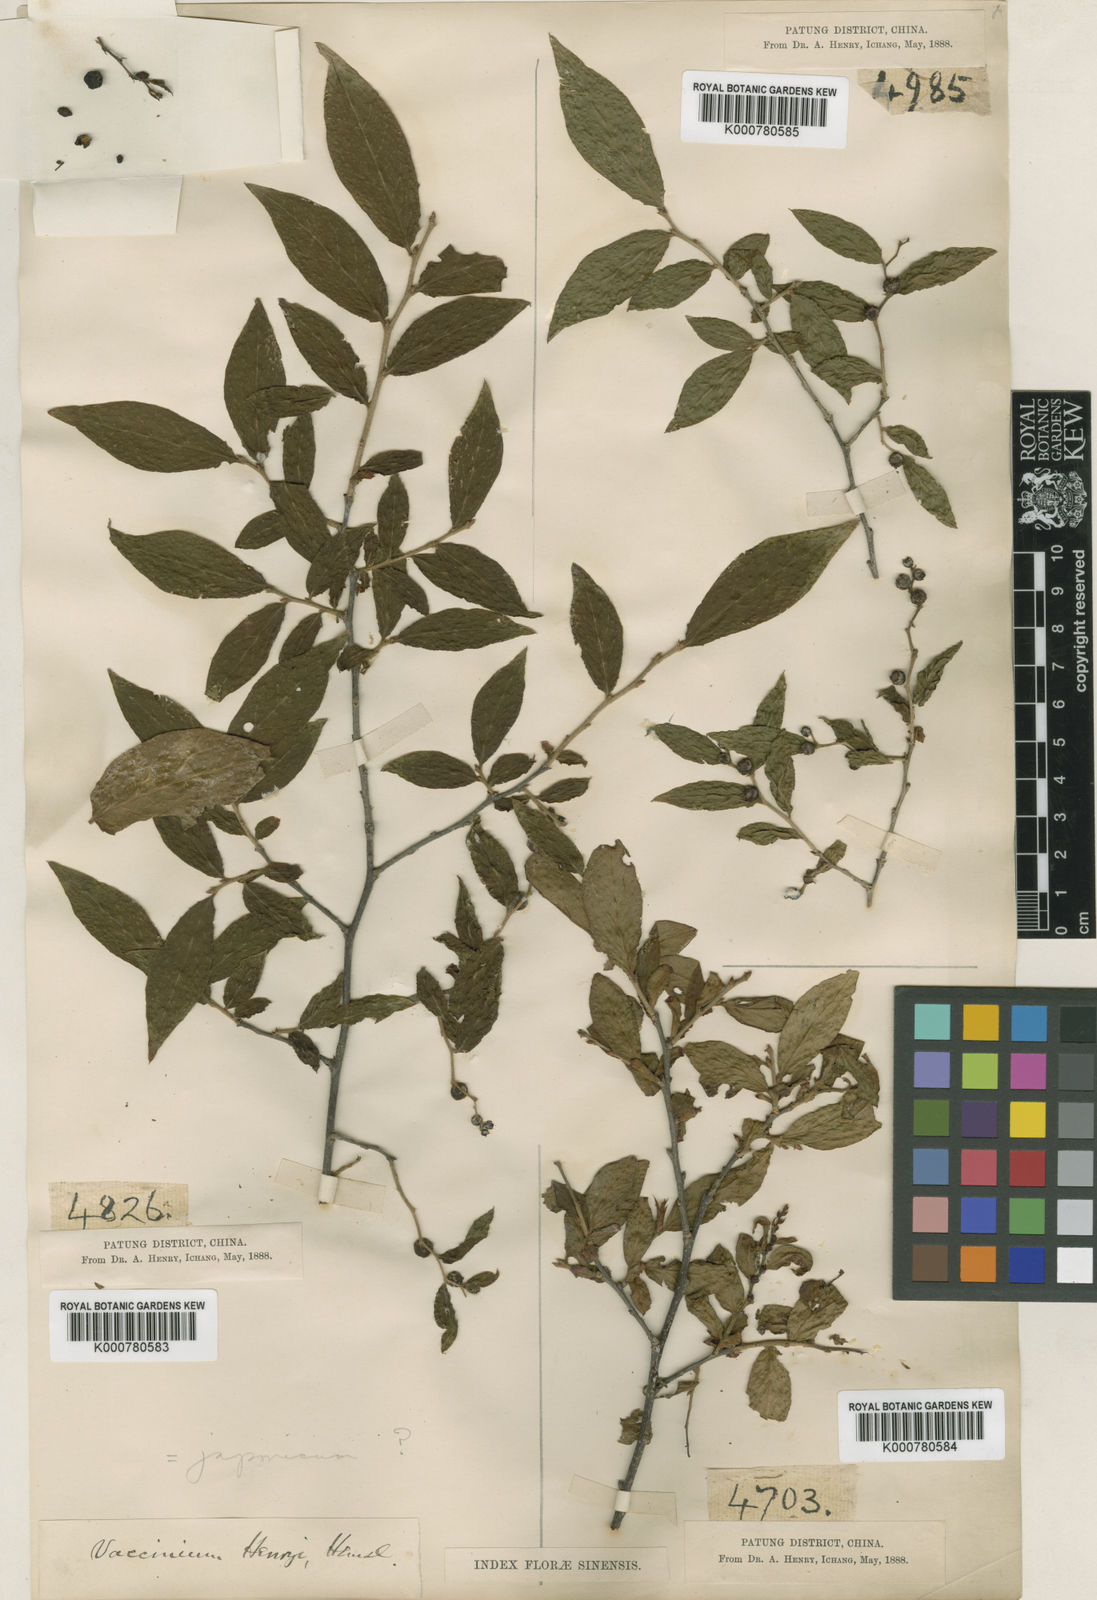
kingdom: Plantae
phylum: Tracheophyta
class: Magnoliopsida
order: Ericales
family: Ericaceae
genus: Vaccinium
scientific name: Vaccinium henryi
